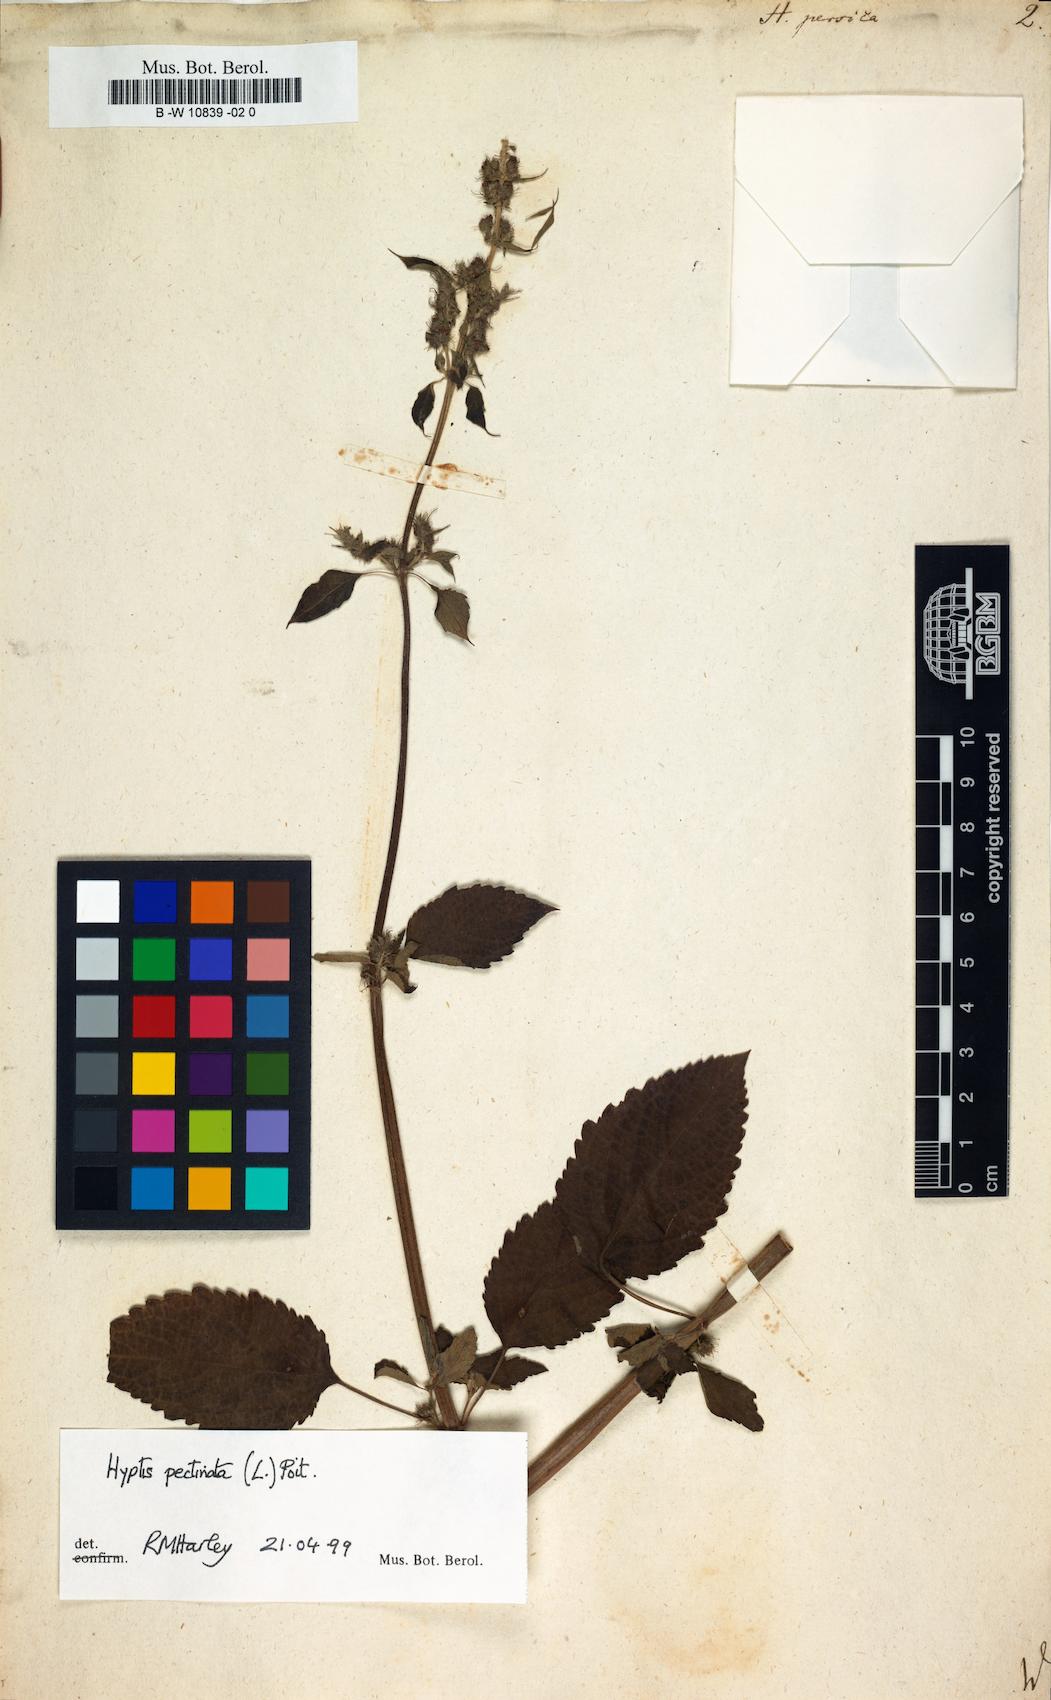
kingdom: Plantae
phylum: Tracheophyta
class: Magnoliopsida
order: Lamiales
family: Lamiaceae
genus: Mesosphaerum
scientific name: Mesosphaerum pectinatum
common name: Comb hyptis
